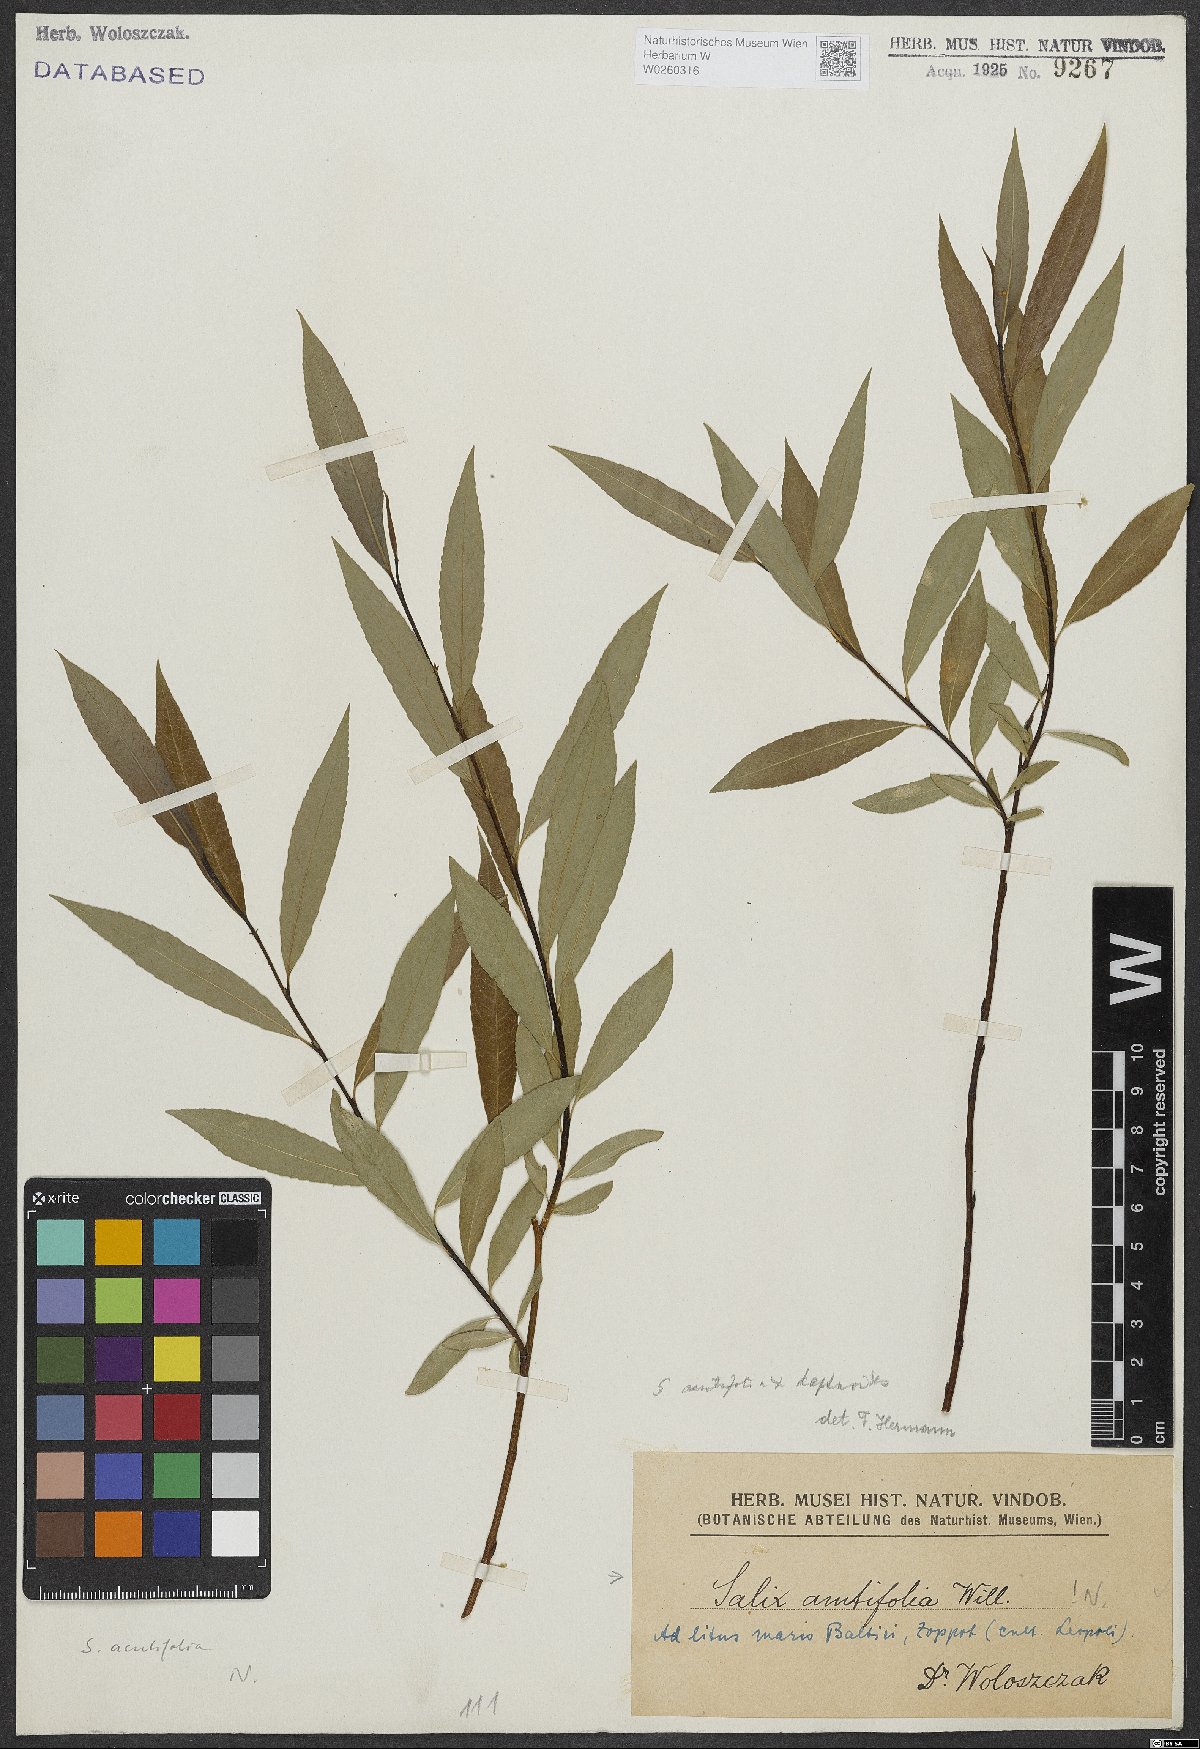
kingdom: Plantae
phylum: Tracheophyta
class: Magnoliopsida
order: Malpighiales
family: Salicaceae
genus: Salix
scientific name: Salix acutifolia
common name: Siberian violet-willow
